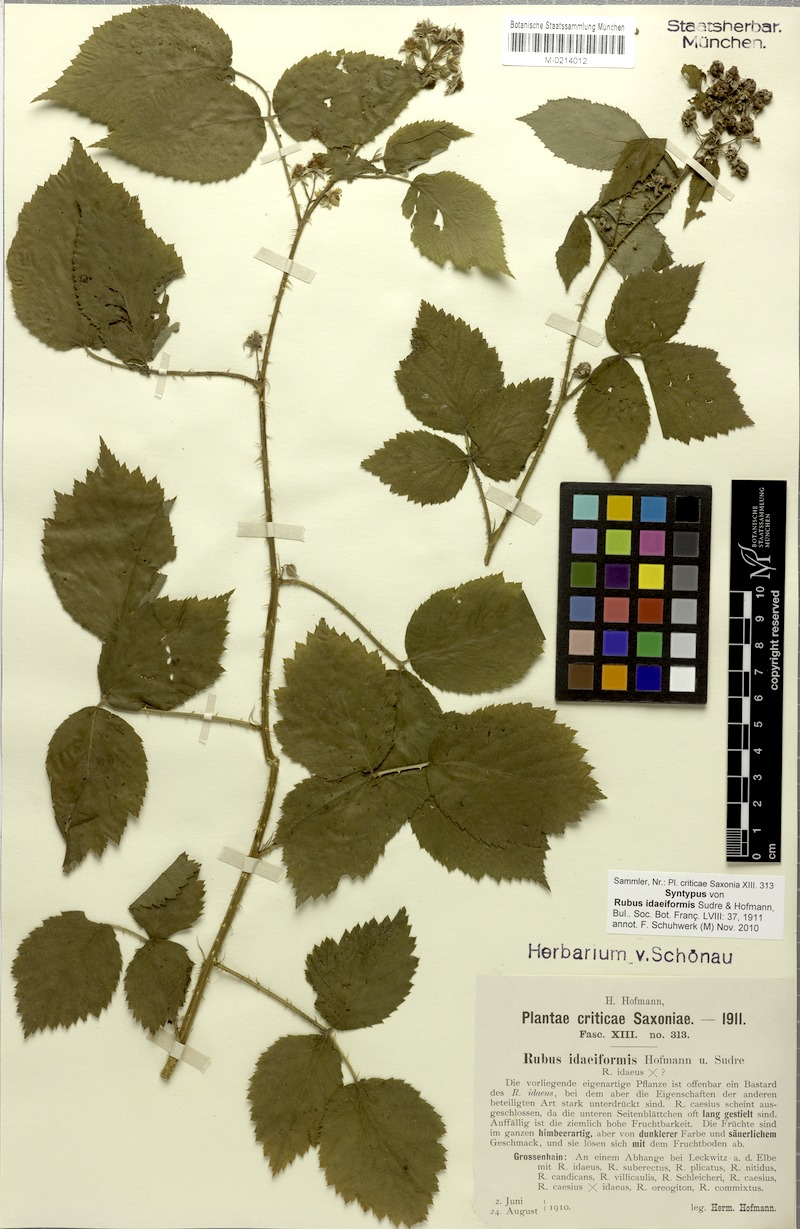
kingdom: Plantae
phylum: Tracheophyta
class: Magnoliopsida
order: Rosales
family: Rosaceae
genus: Rubus
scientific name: Rubus idaeiformis
